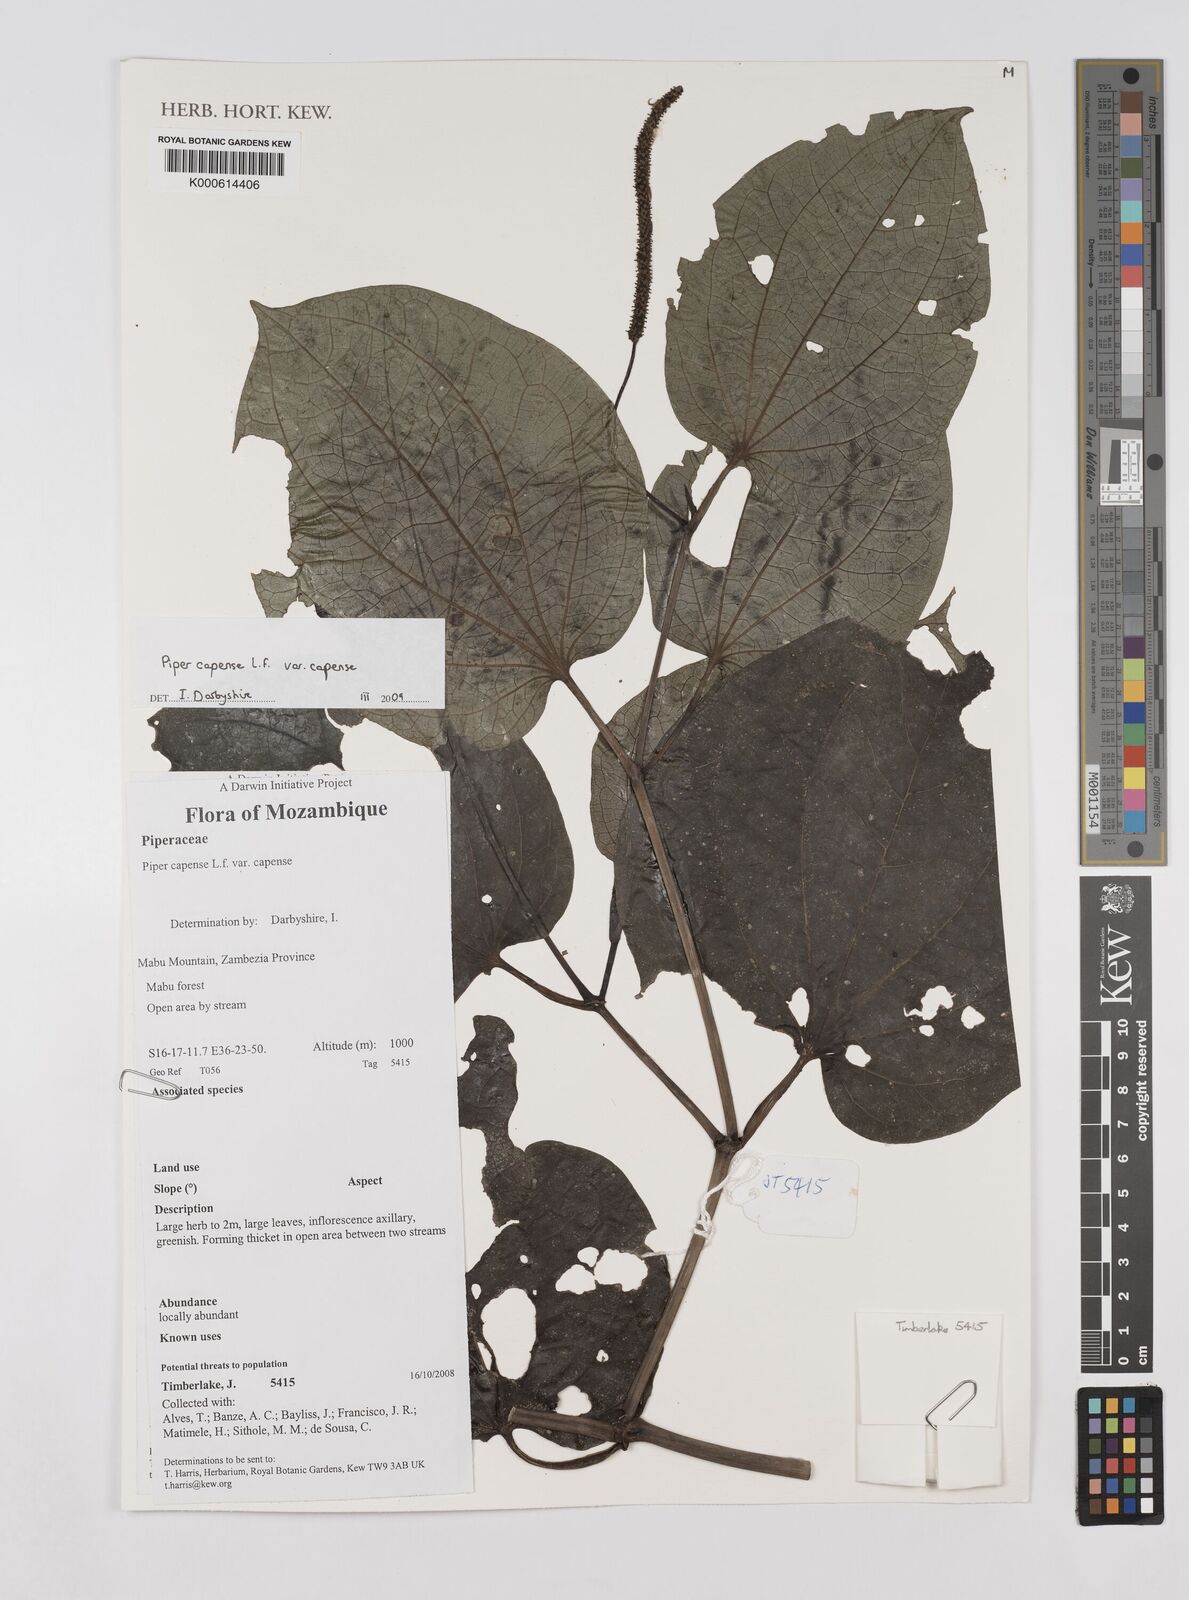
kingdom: Plantae
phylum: Tracheophyta
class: Magnoliopsida
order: Piperales
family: Piperaceae
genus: Piper
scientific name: Piper capense
